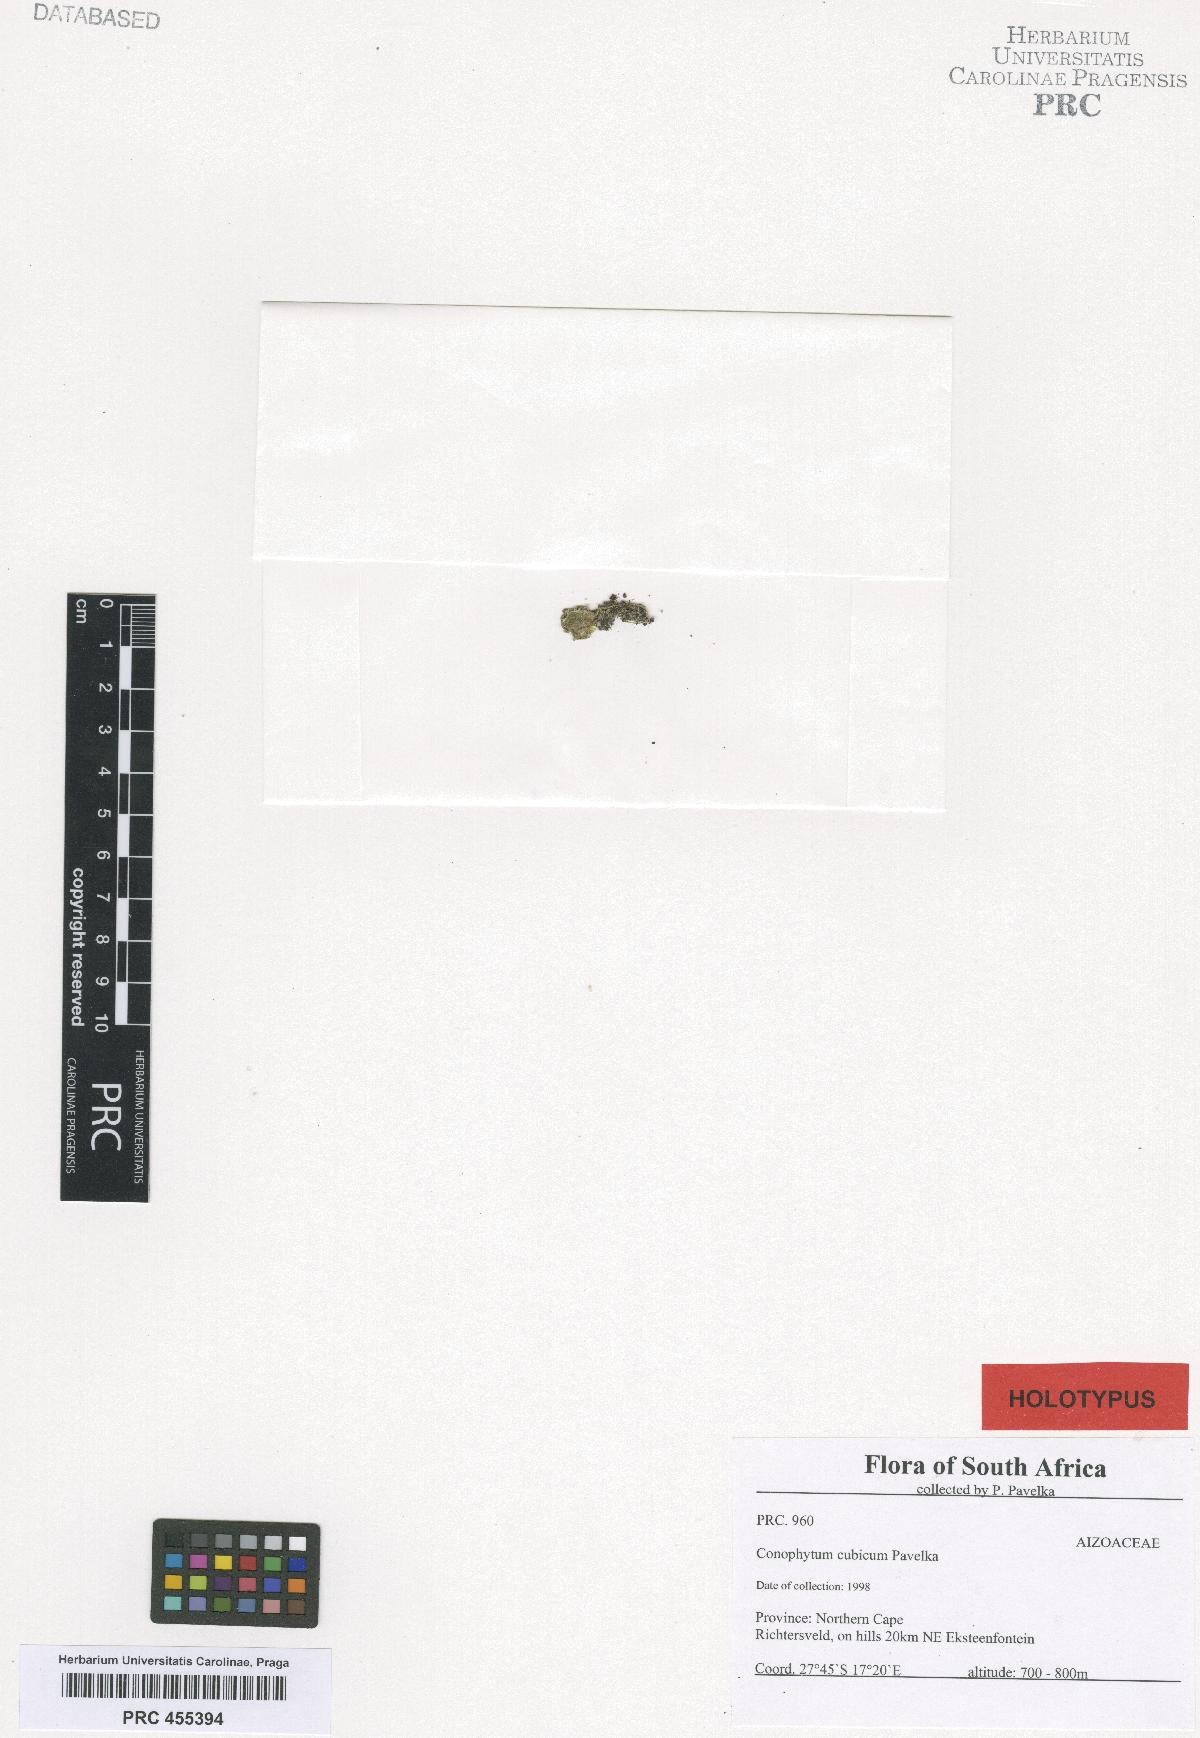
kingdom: Plantae
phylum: Tracheophyta
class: Magnoliopsida
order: Caryophyllales
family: Aizoaceae
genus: Conophytum
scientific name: Conophytum cubicum
